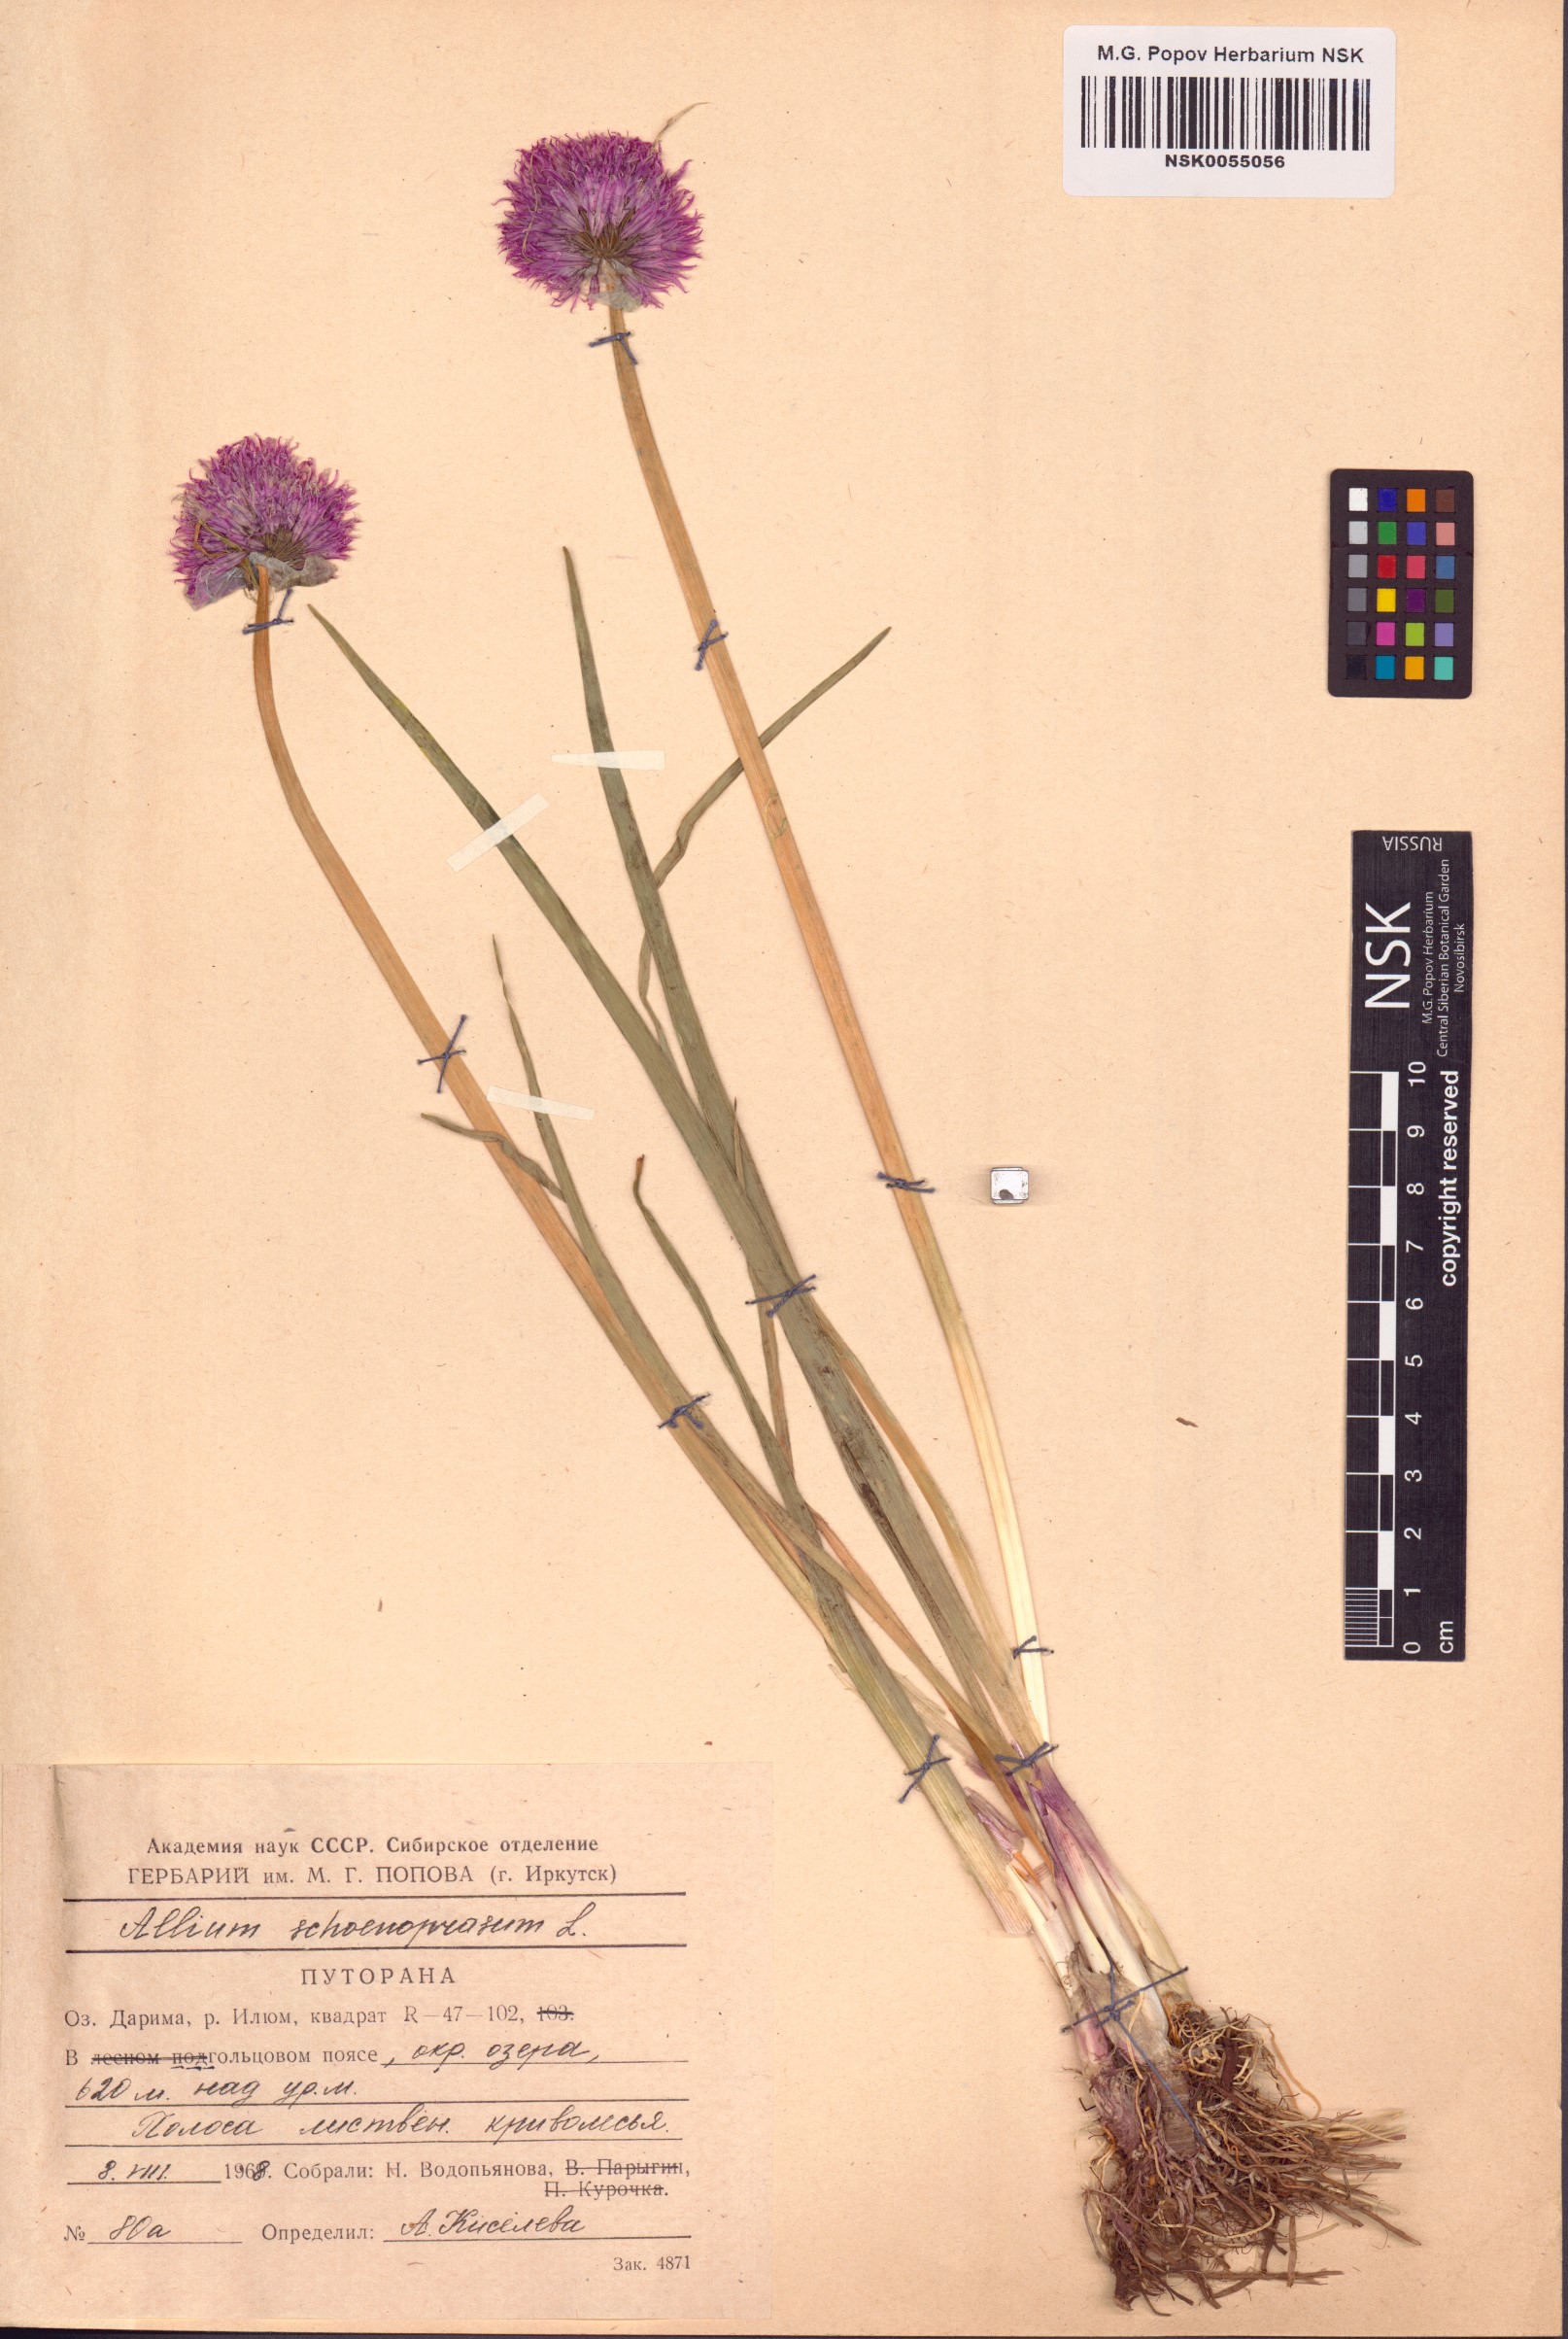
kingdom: Plantae
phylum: Tracheophyta
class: Liliopsida
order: Asparagales
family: Amaryllidaceae
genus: Allium
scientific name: Allium schoenoprasum
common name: Chives
